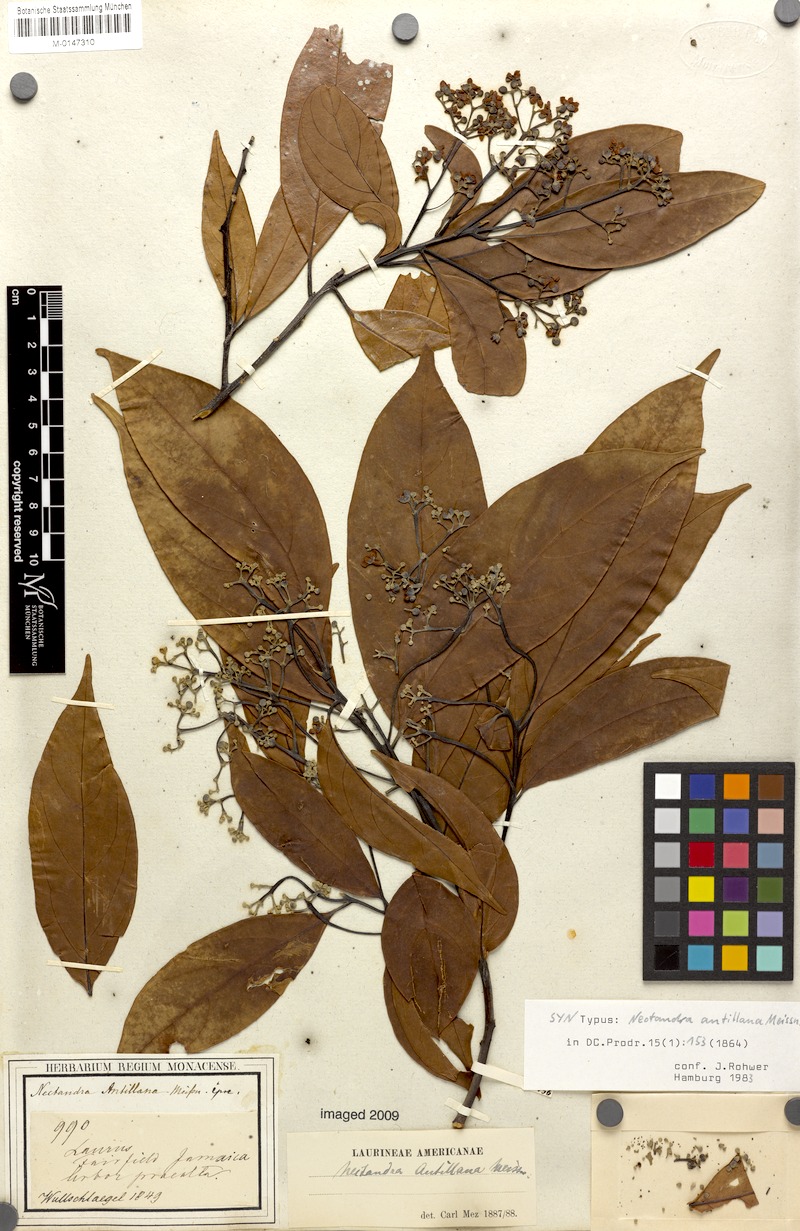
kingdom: Plantae
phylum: Tracheophyta
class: Magnoliopsida
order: Laurales
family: Lauraceae
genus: Nectandra
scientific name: Nectandra hihua
